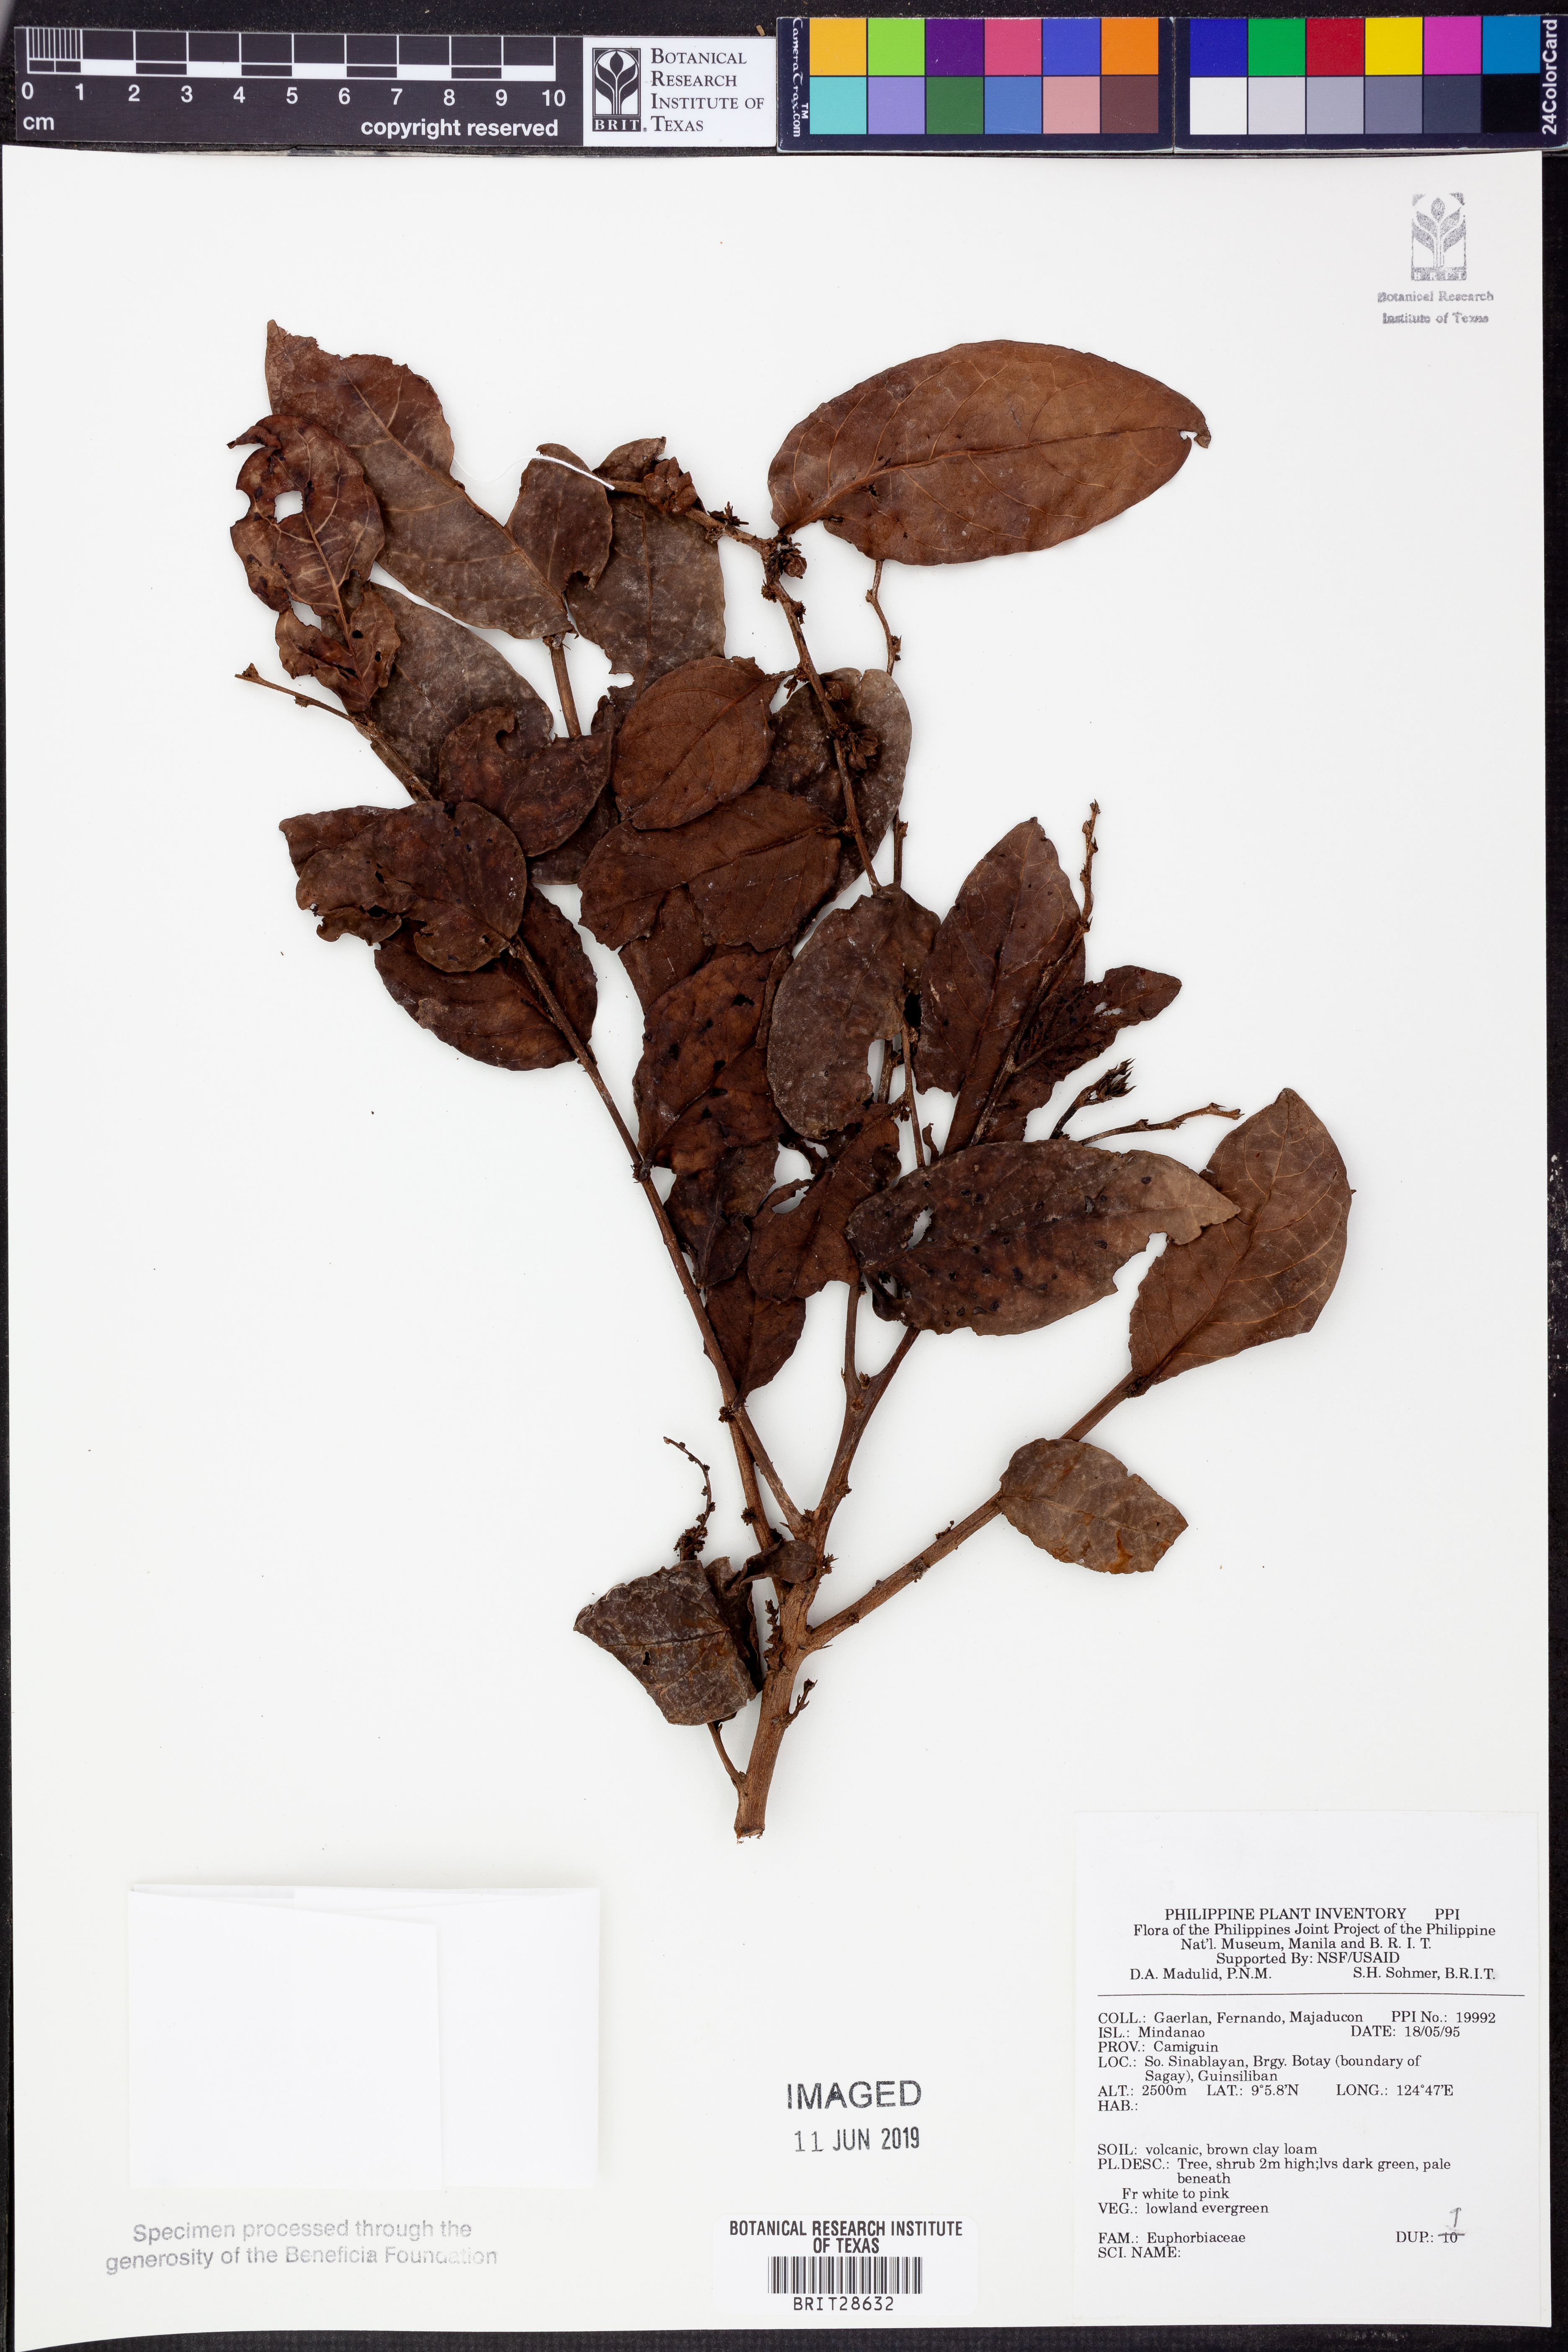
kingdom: Plantae
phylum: Tracheophyta
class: Magnoliopsida
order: Malpighiales
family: Euphorbiaceae
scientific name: Euphorbiaceae
